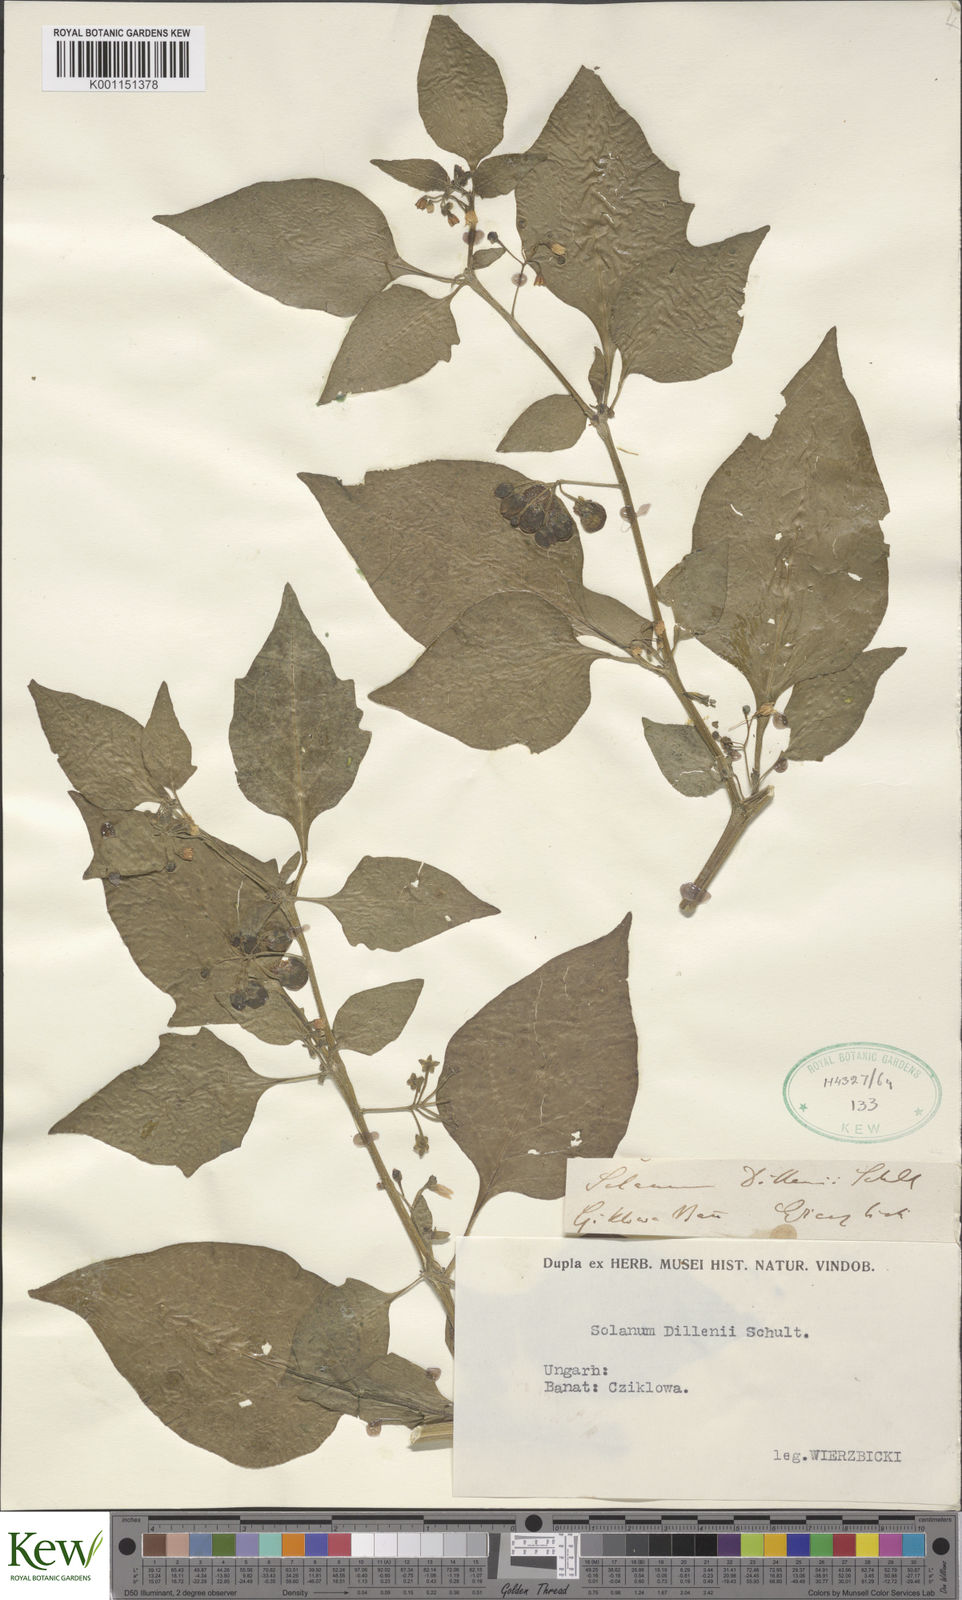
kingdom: Plantae
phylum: Tracheophyta
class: Magnoliopsida
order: Solanales
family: Solanaceae
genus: Solanum
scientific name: Solanum nigrum
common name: Black nightshade
